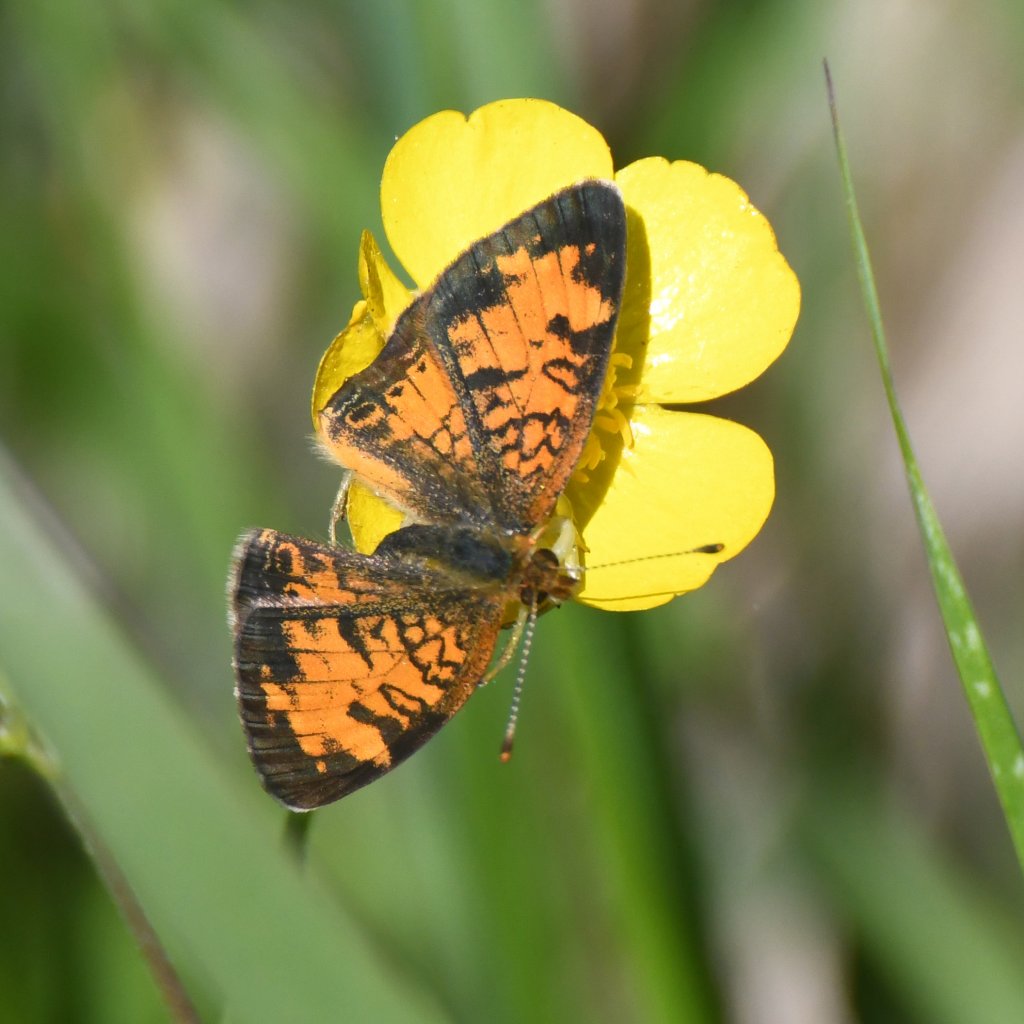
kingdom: Animalia
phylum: Arthropoda
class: Insecta
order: Lepidoptera
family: Nymphalidae
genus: Phyciodes
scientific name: Phyciodes tharos
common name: Northern Crescent
